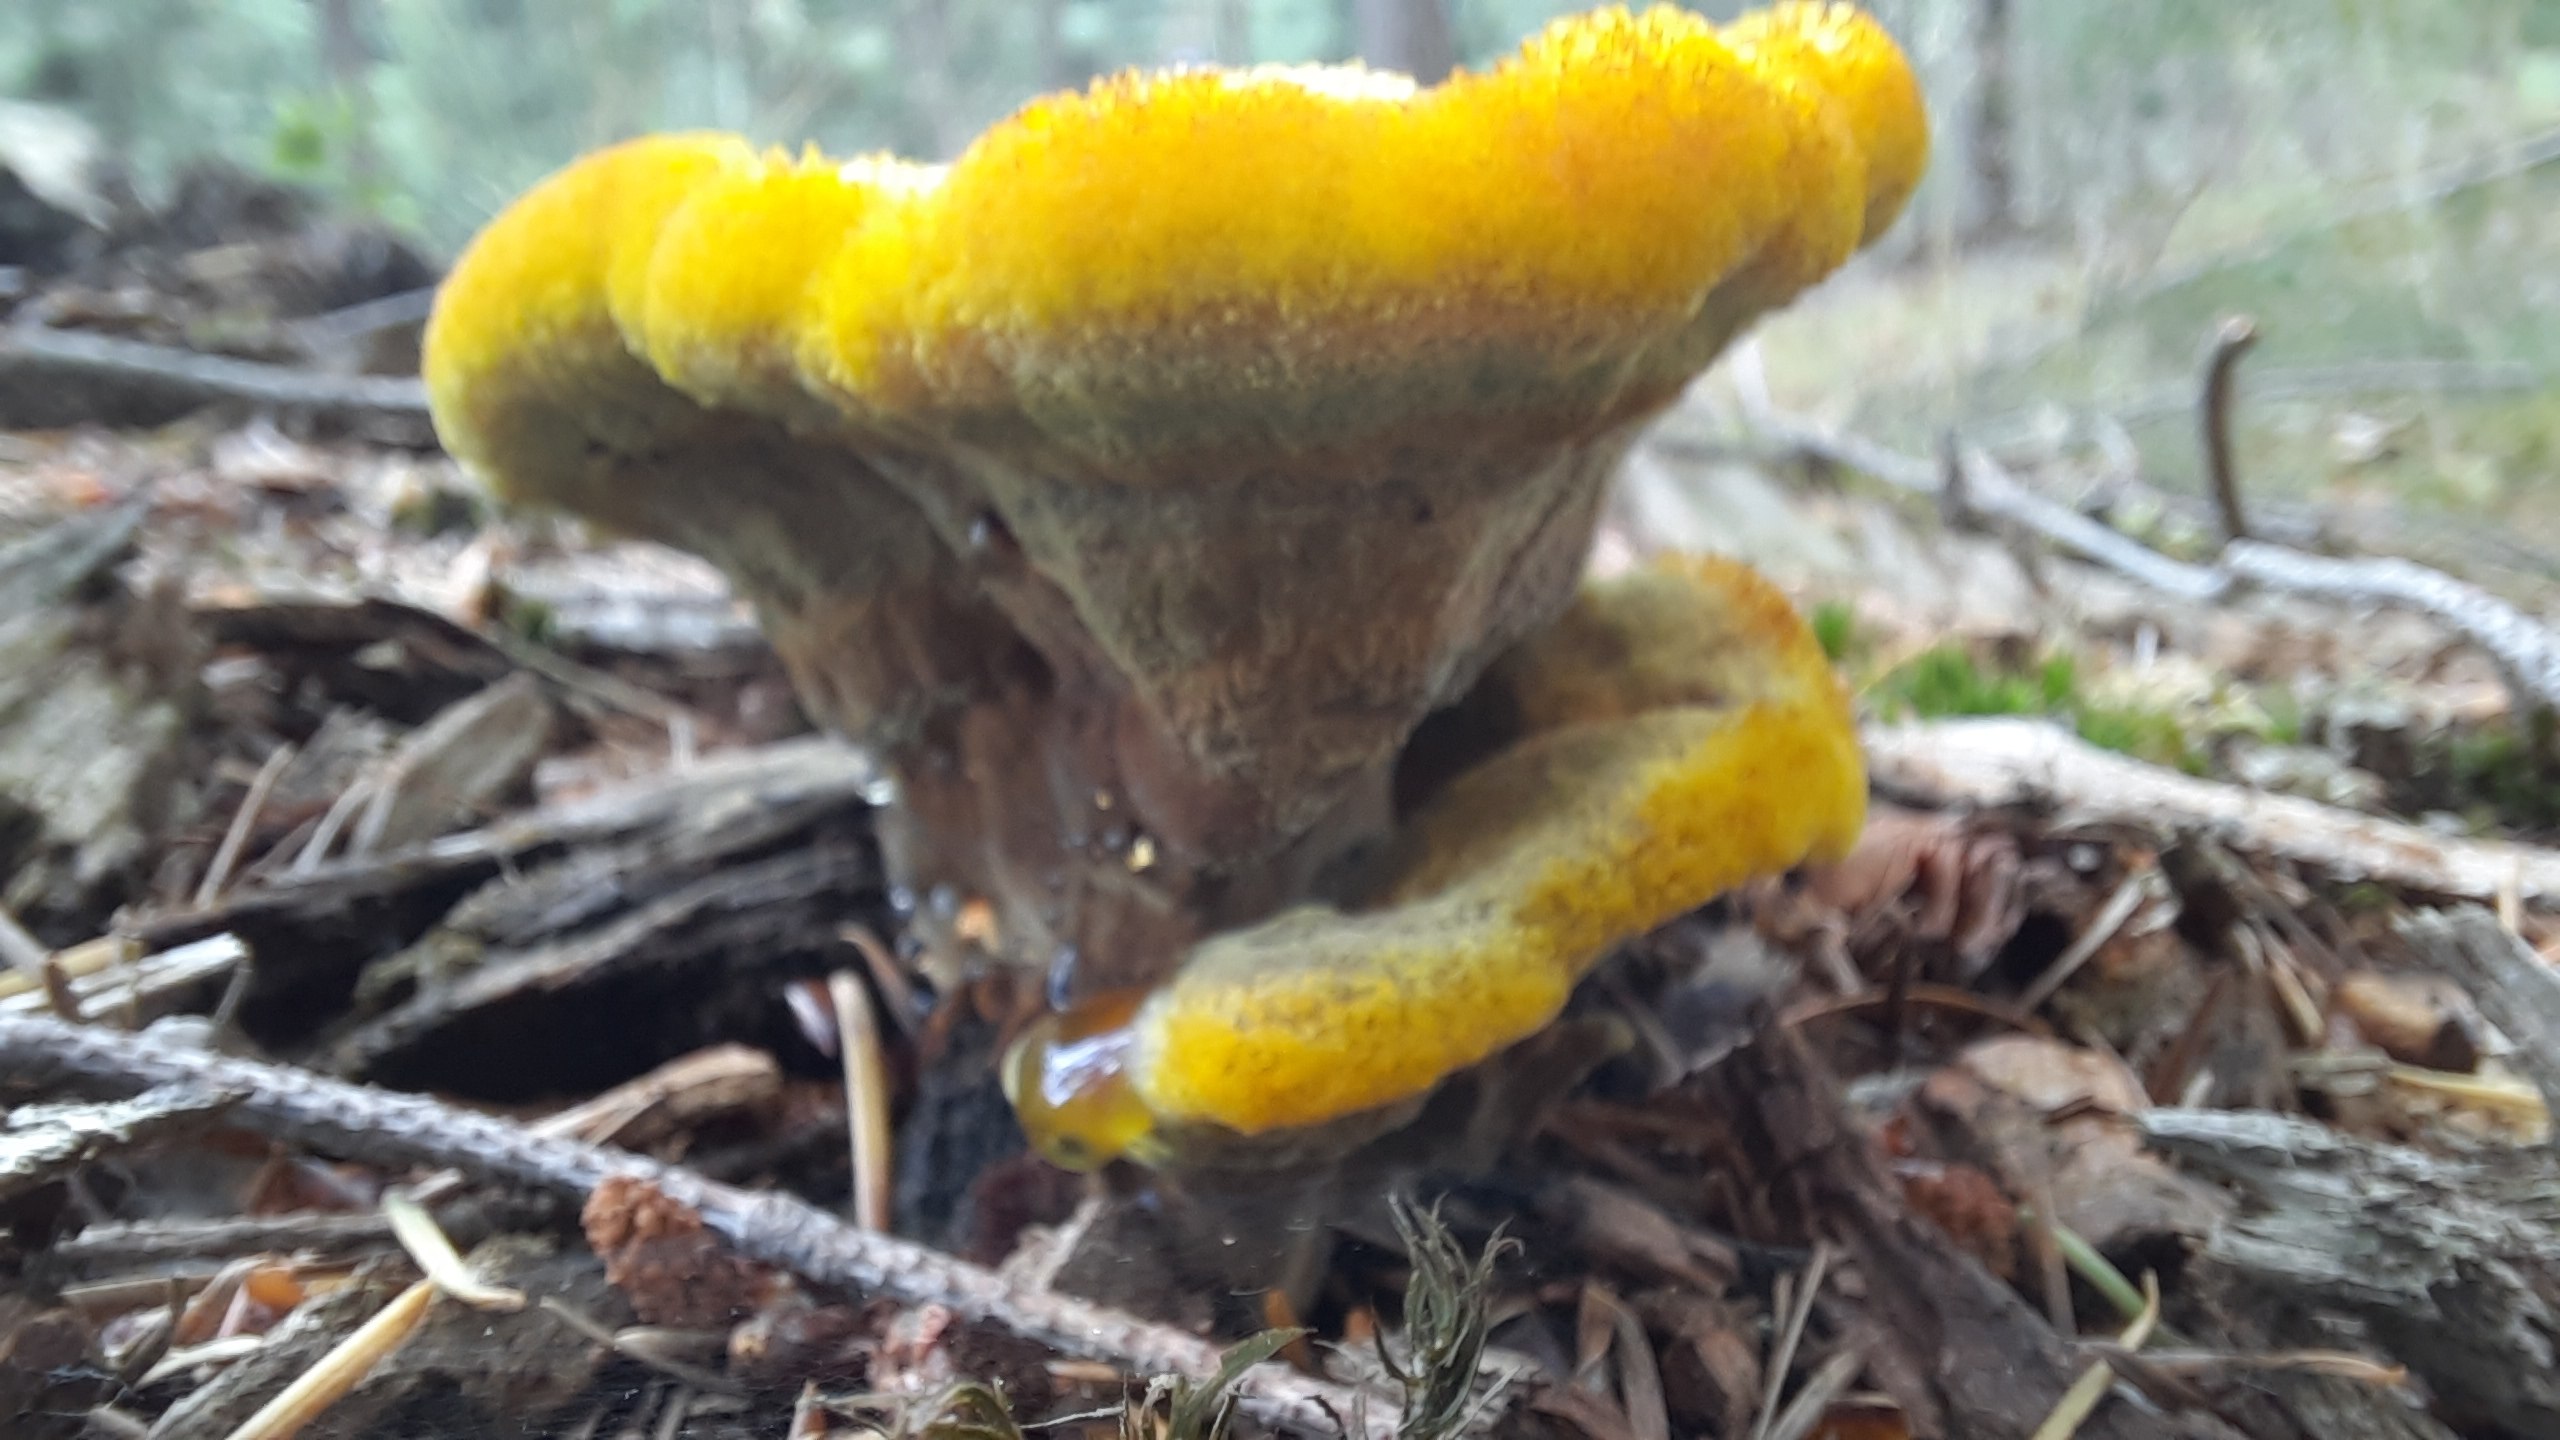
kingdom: Fungi
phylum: Basidiomycota
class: Agaricomycetes
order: Polyporales
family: Laetiporaceae
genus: Phaeolus
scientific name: Phaeolus
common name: Brunporesvamp
